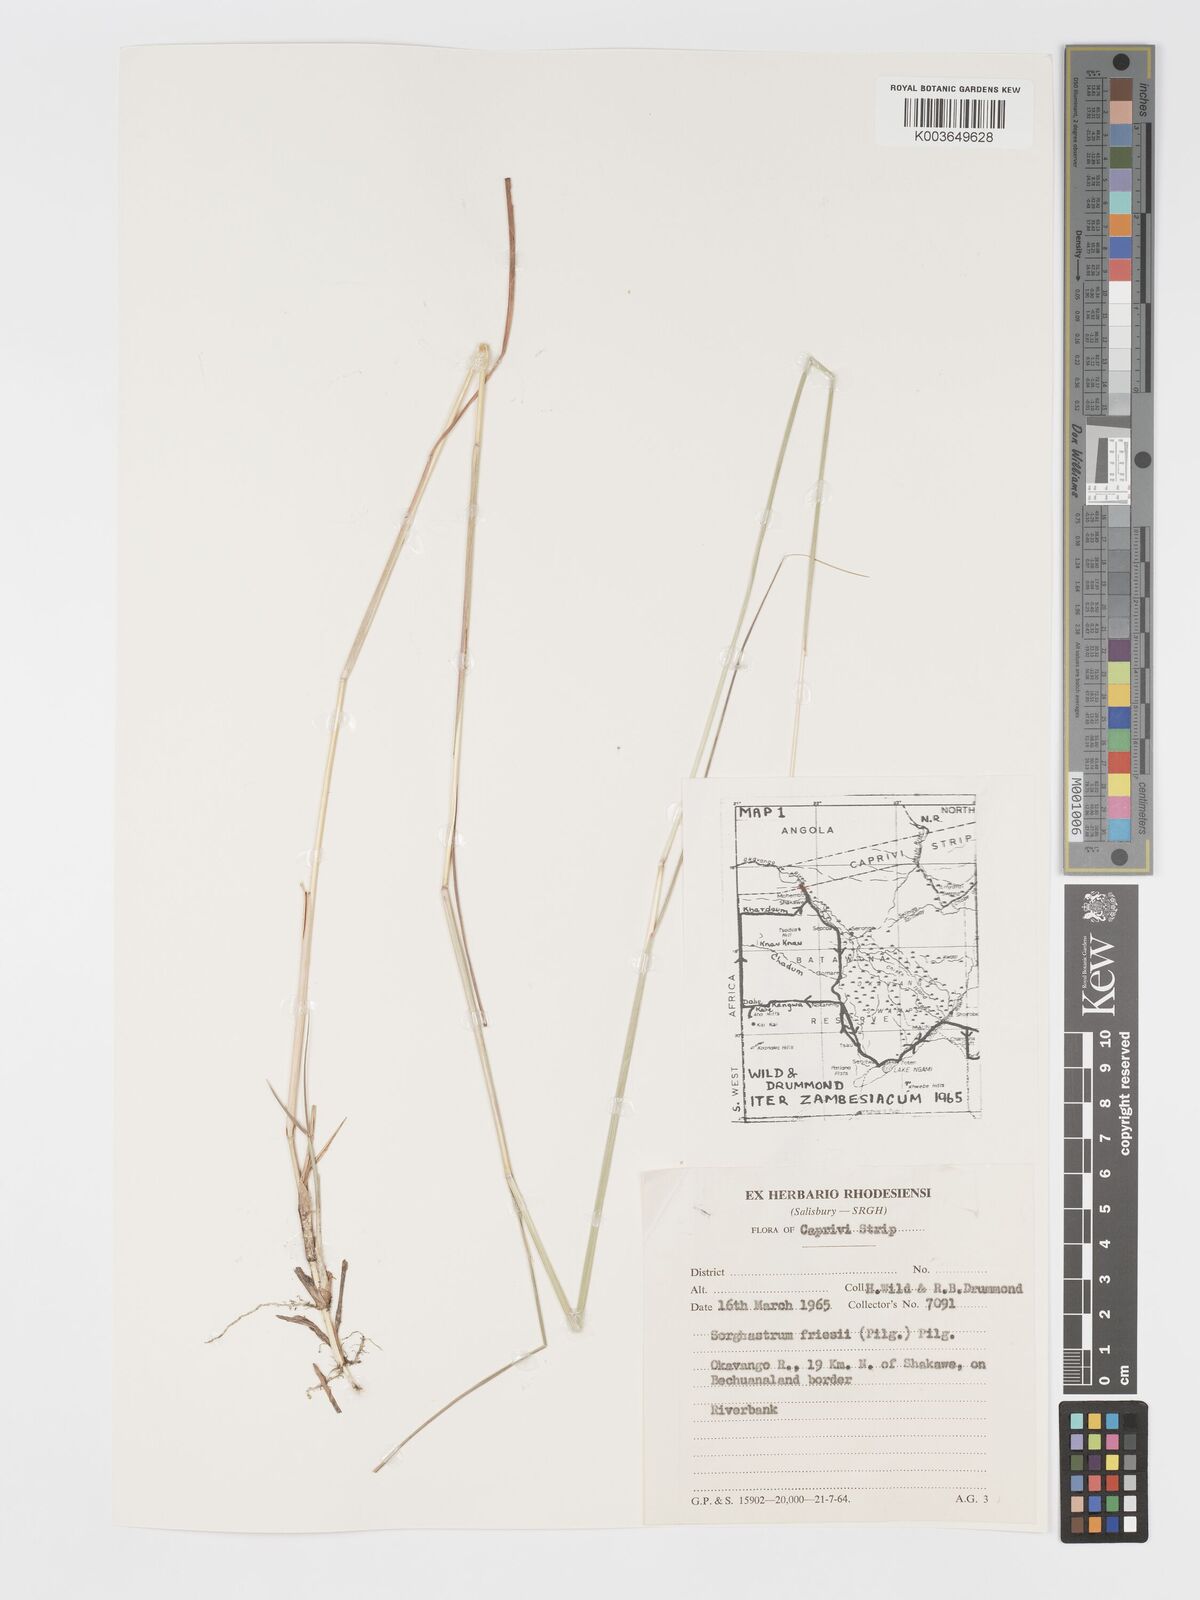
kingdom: Plantae
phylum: Tracheophyta
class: Liliopsida
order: Poales
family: Poaceae
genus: Sorghastrum
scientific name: Sorghastrum nudipes
